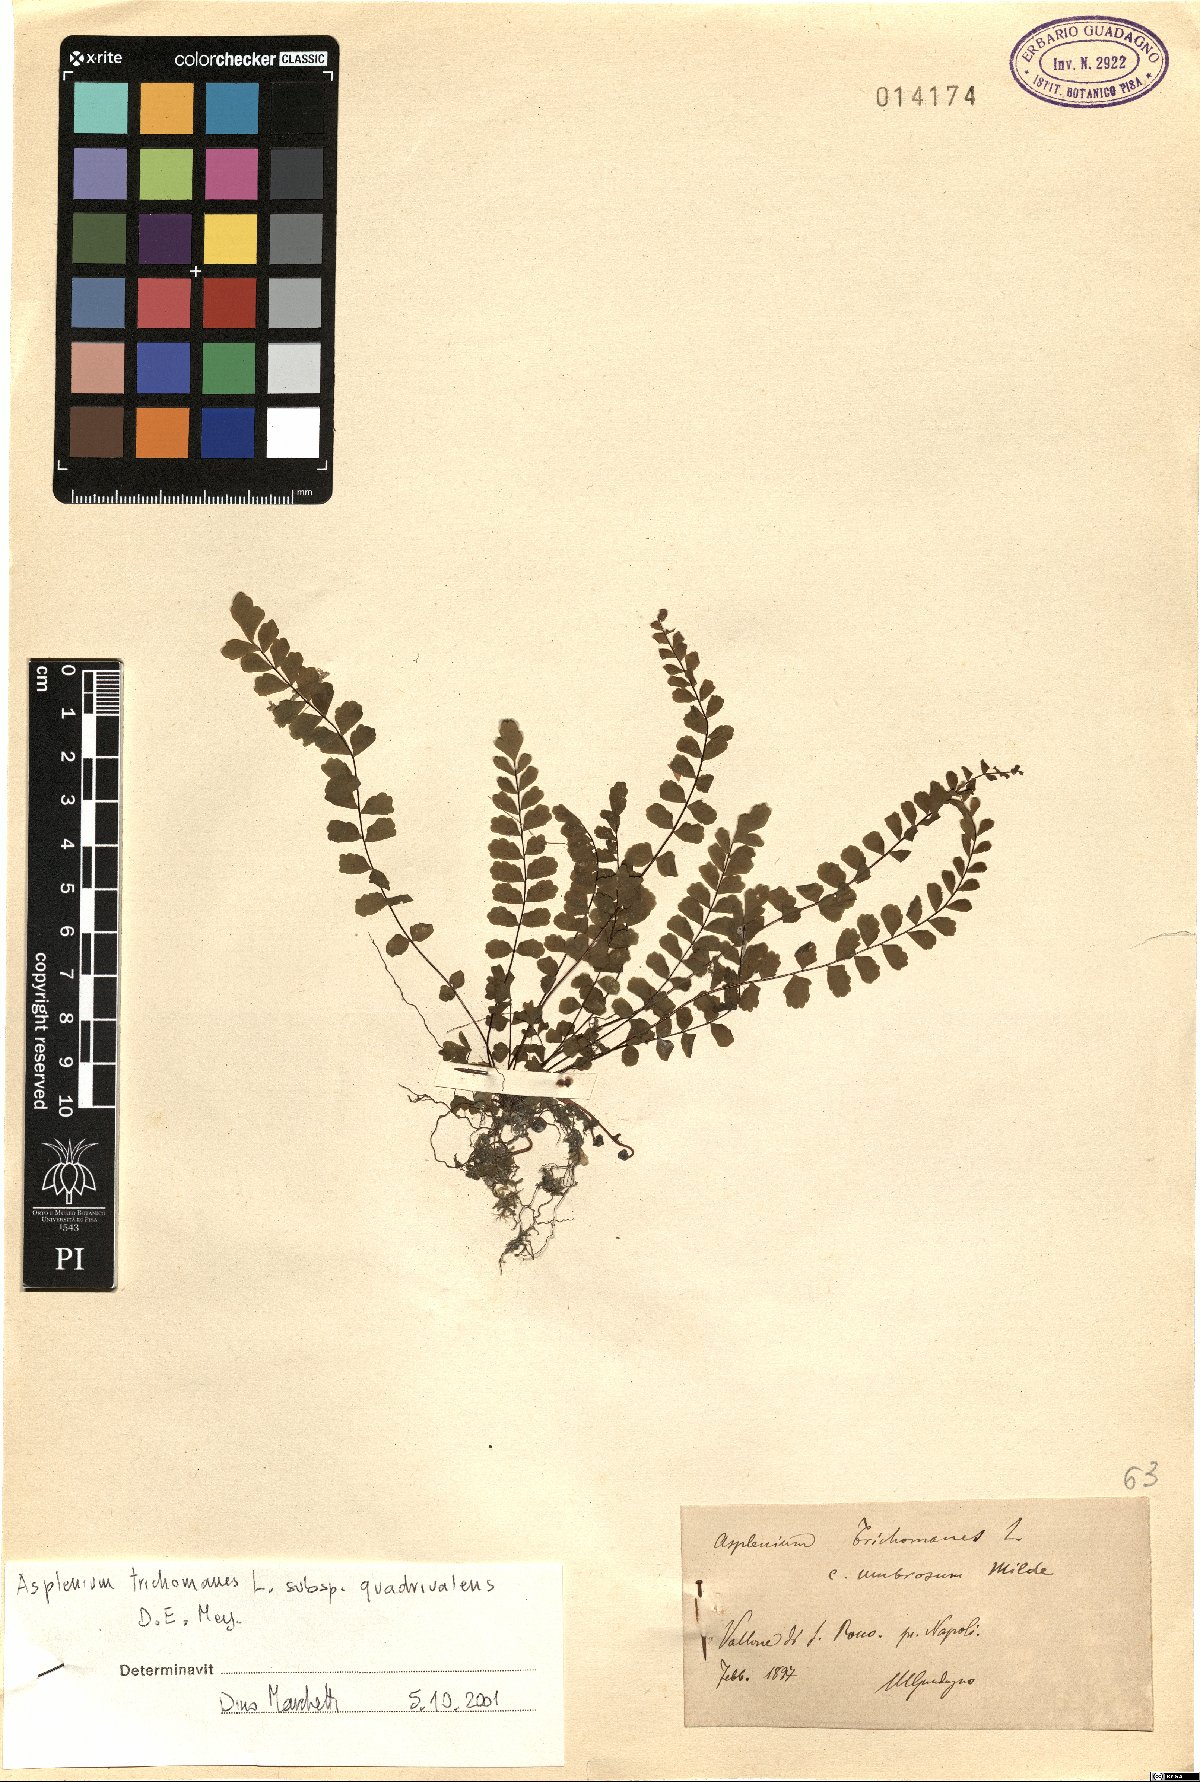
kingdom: Plantae
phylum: Tracheophyta
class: Polypodiopsida
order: Polypodiales
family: Aspleniaceae
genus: Asplenium
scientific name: Asplenium quadrivalens
